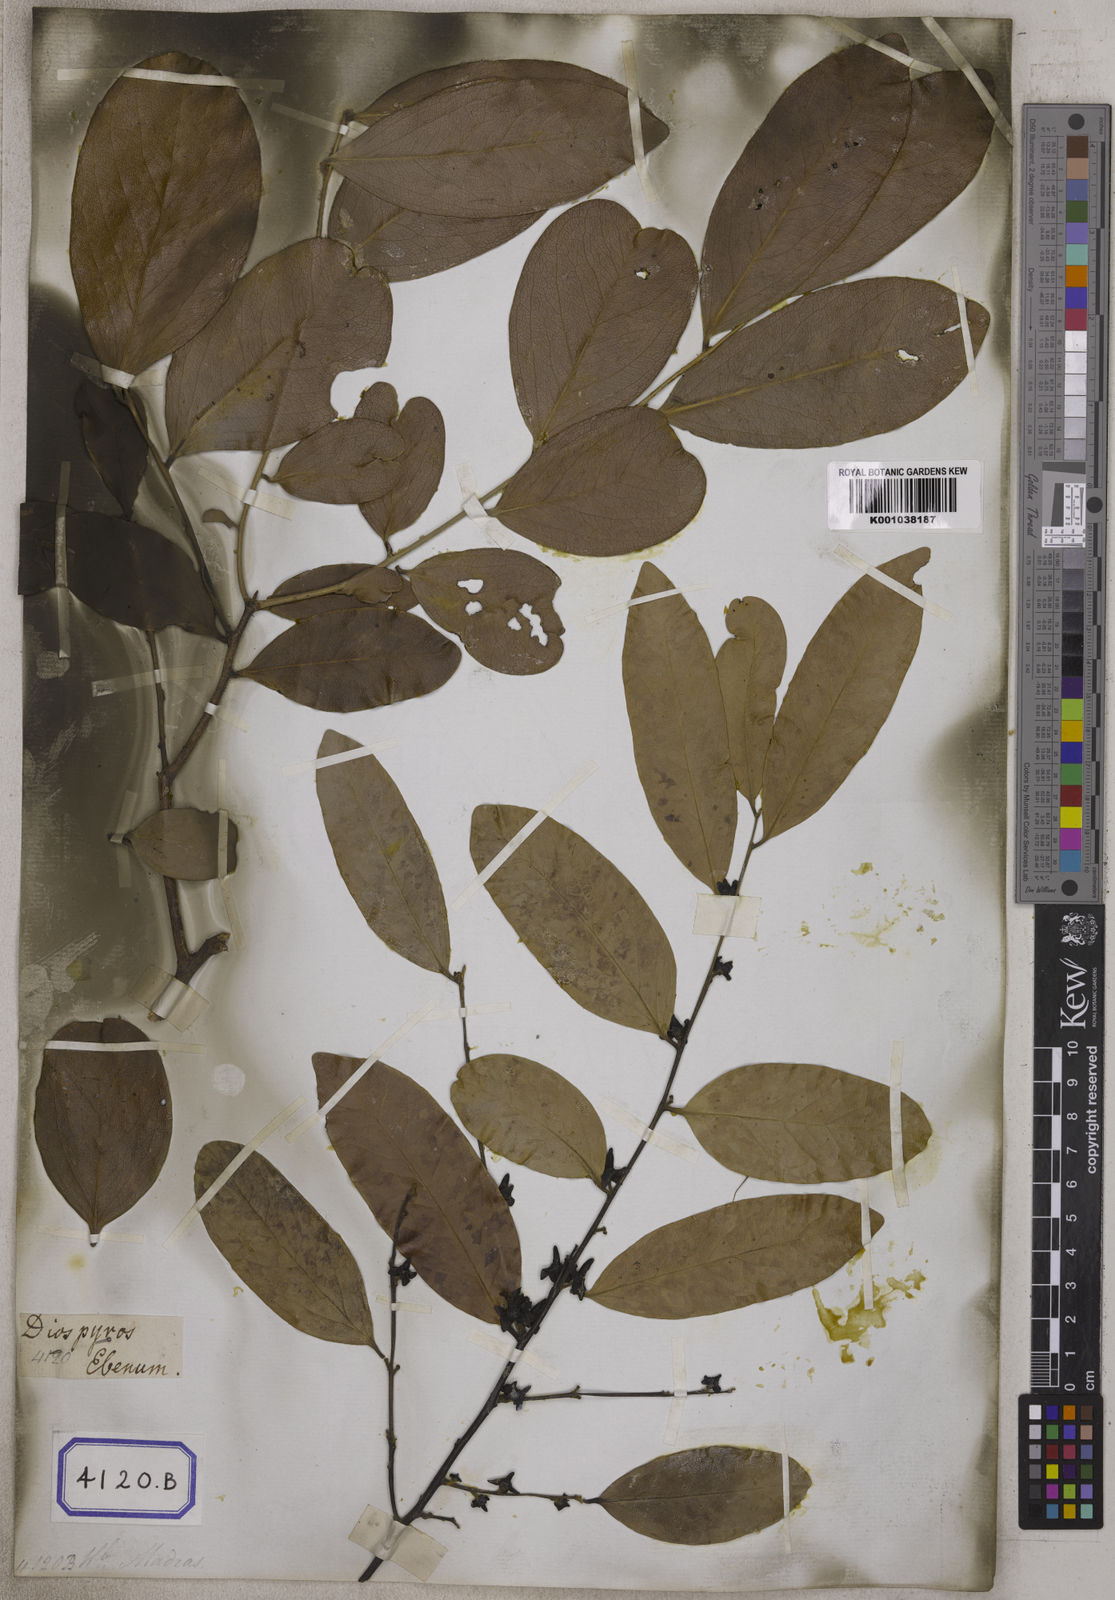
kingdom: Plantae
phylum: Tracheophyta
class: Magnoliopsida
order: Ericales
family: Ebenaceae
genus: Diospyros
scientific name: Diospyros
